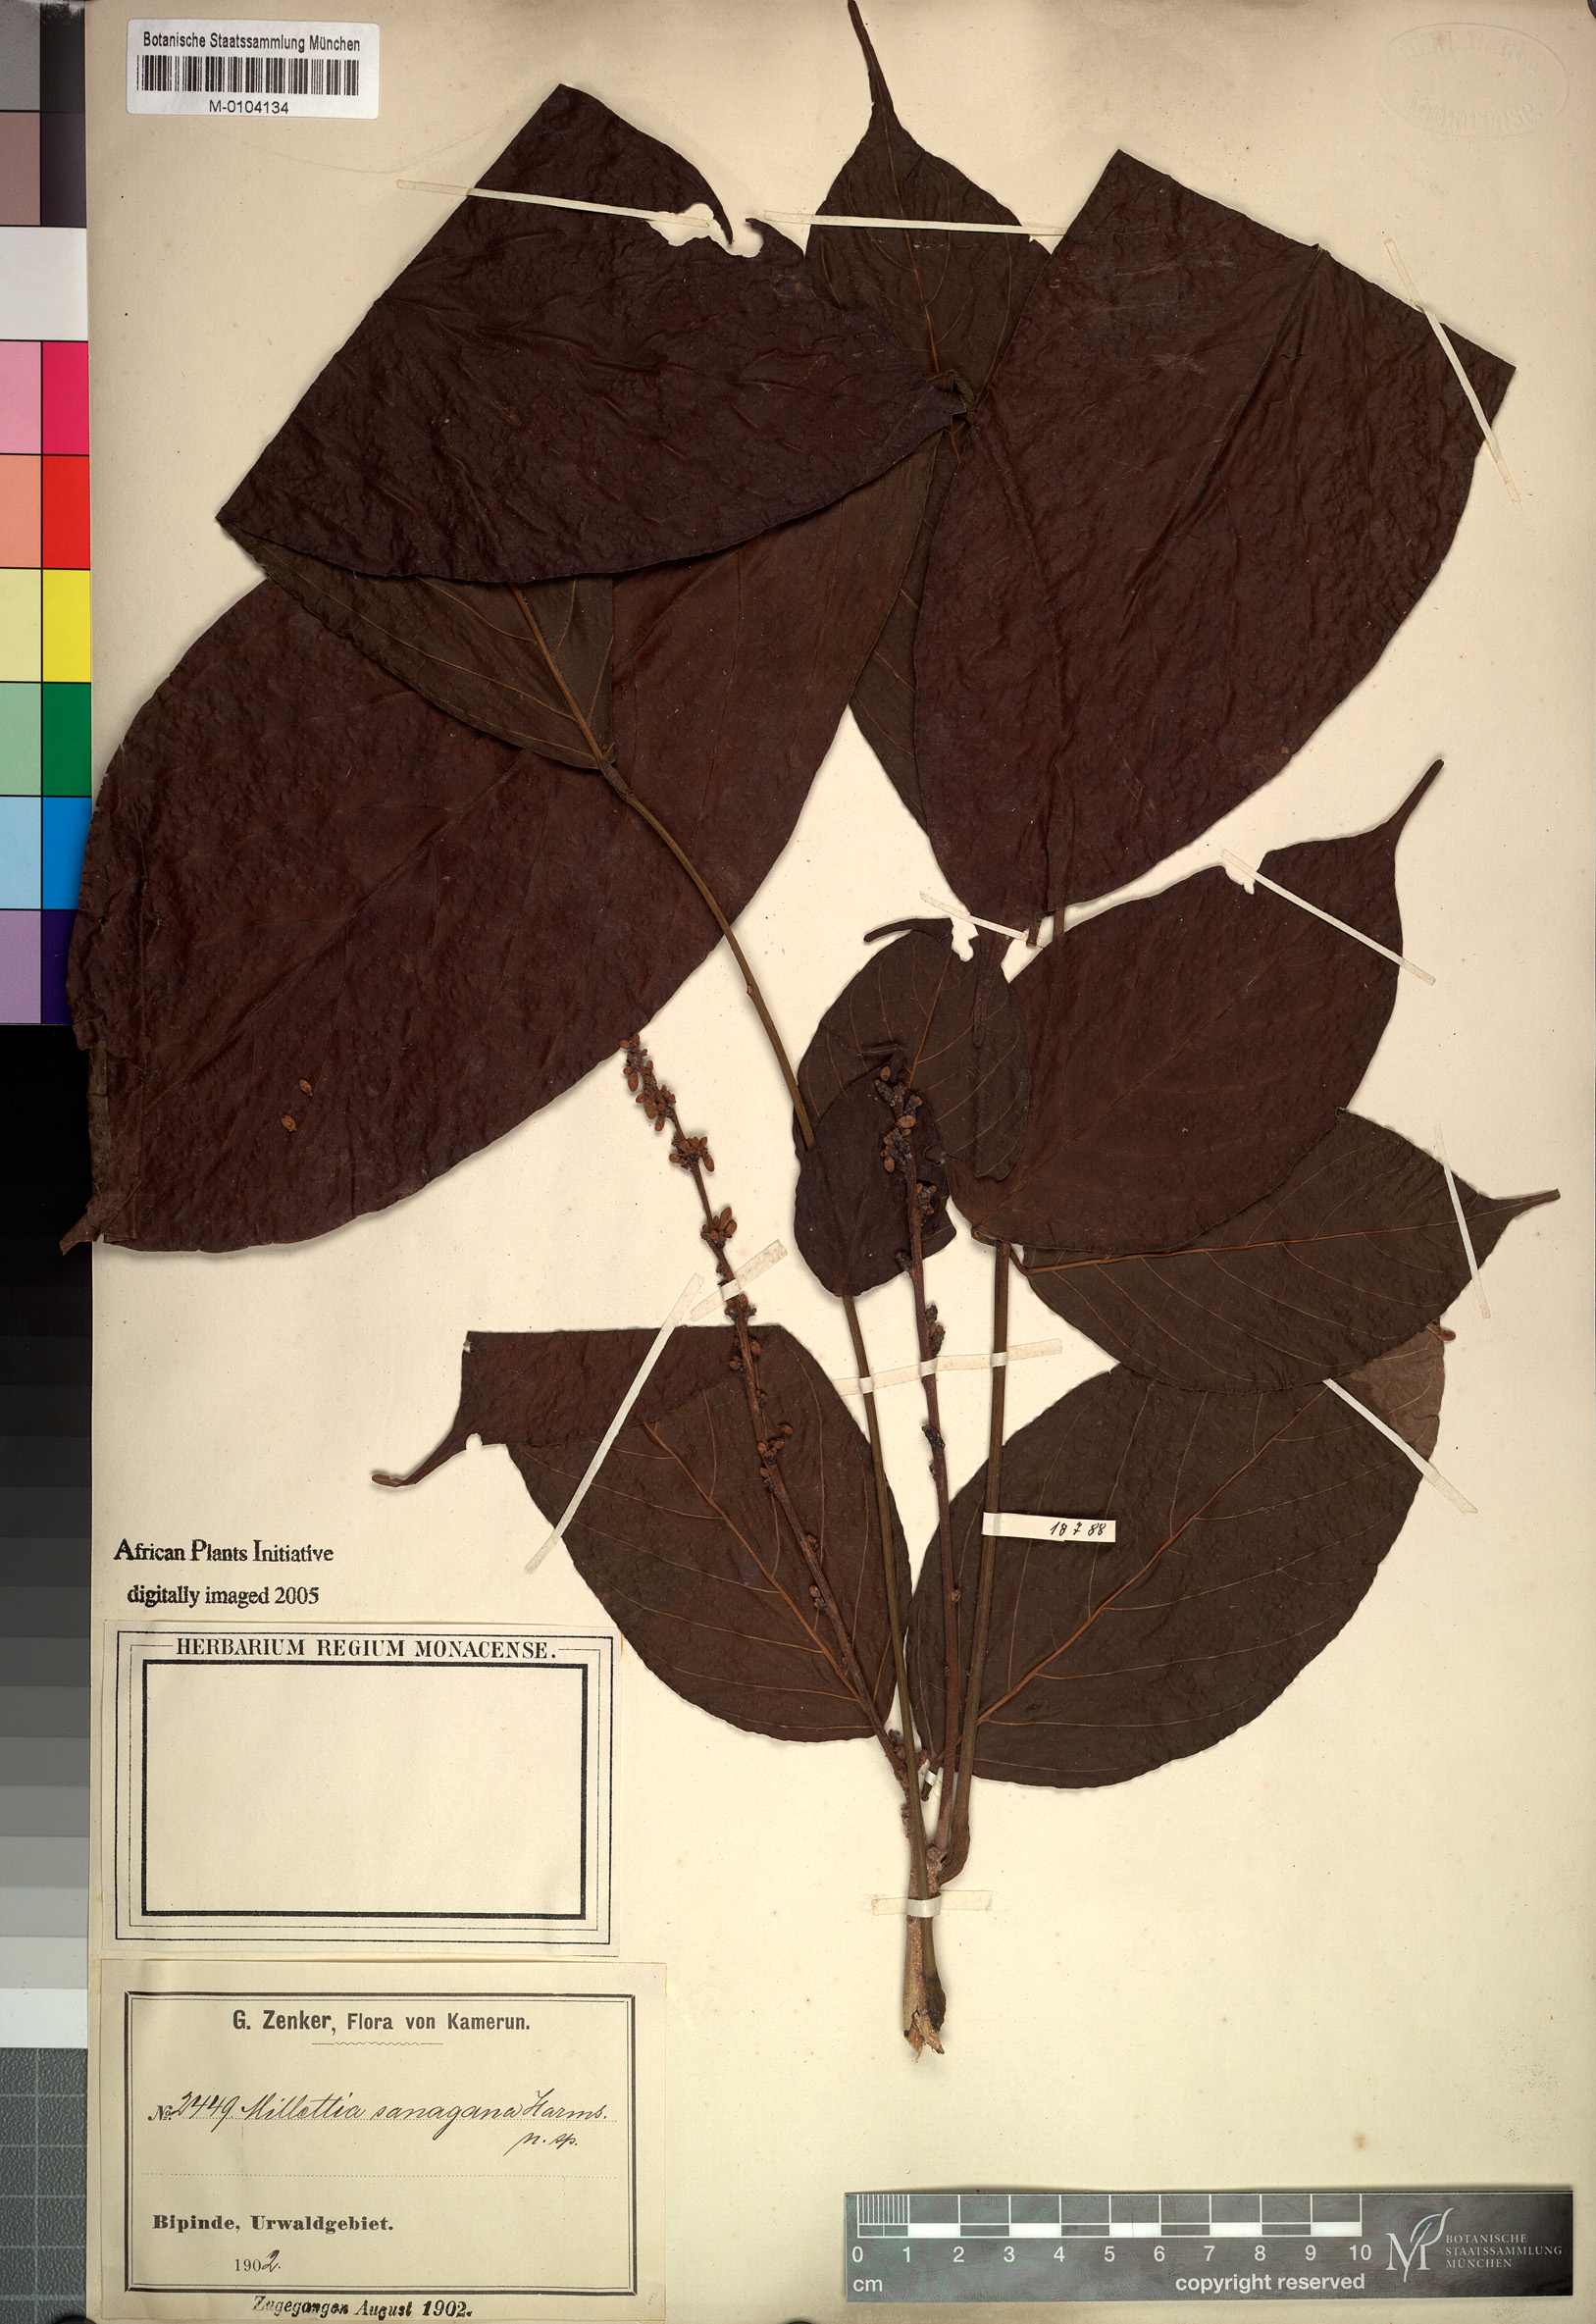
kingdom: Plantae
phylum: Tracheophyta
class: Magnoliopsida
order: Fabales
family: Fabaceae
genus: Millettia
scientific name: Millettia sanagana
